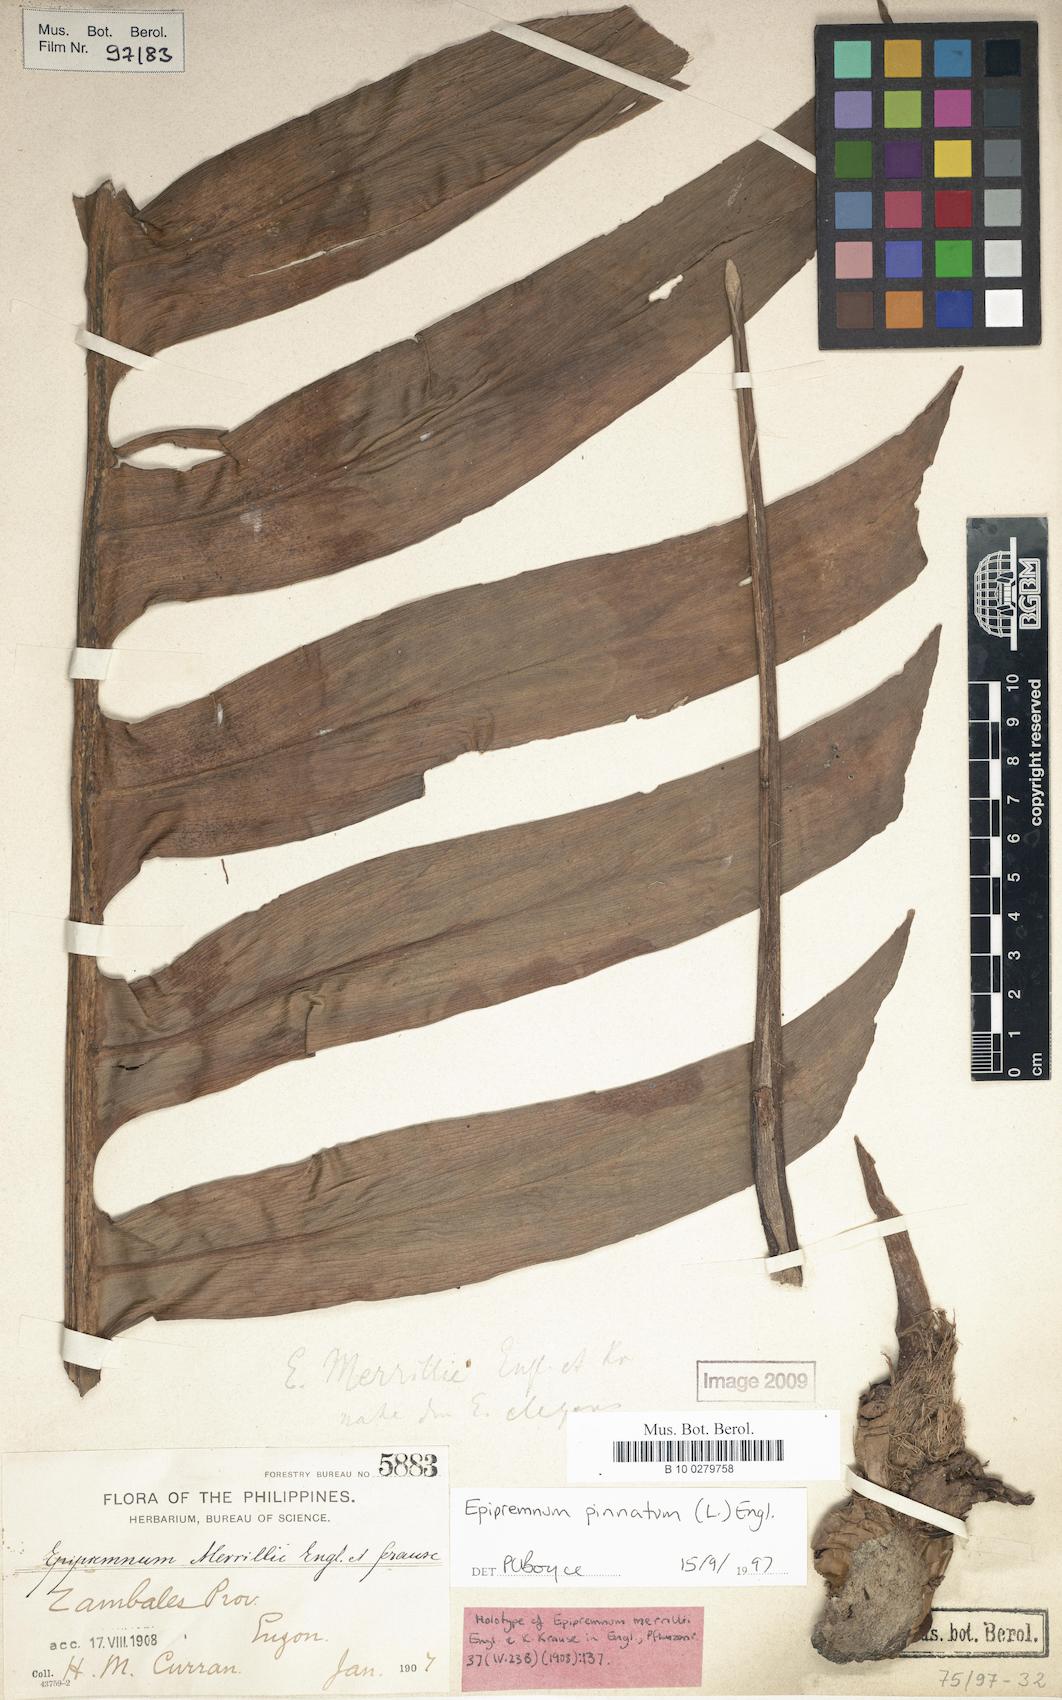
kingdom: Plantae
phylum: Tracheophyta
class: Liliopsida
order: Alismatales
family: Araceae
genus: Epipremnum
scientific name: Epipremnum pinnatum
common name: Centipede tongavine
